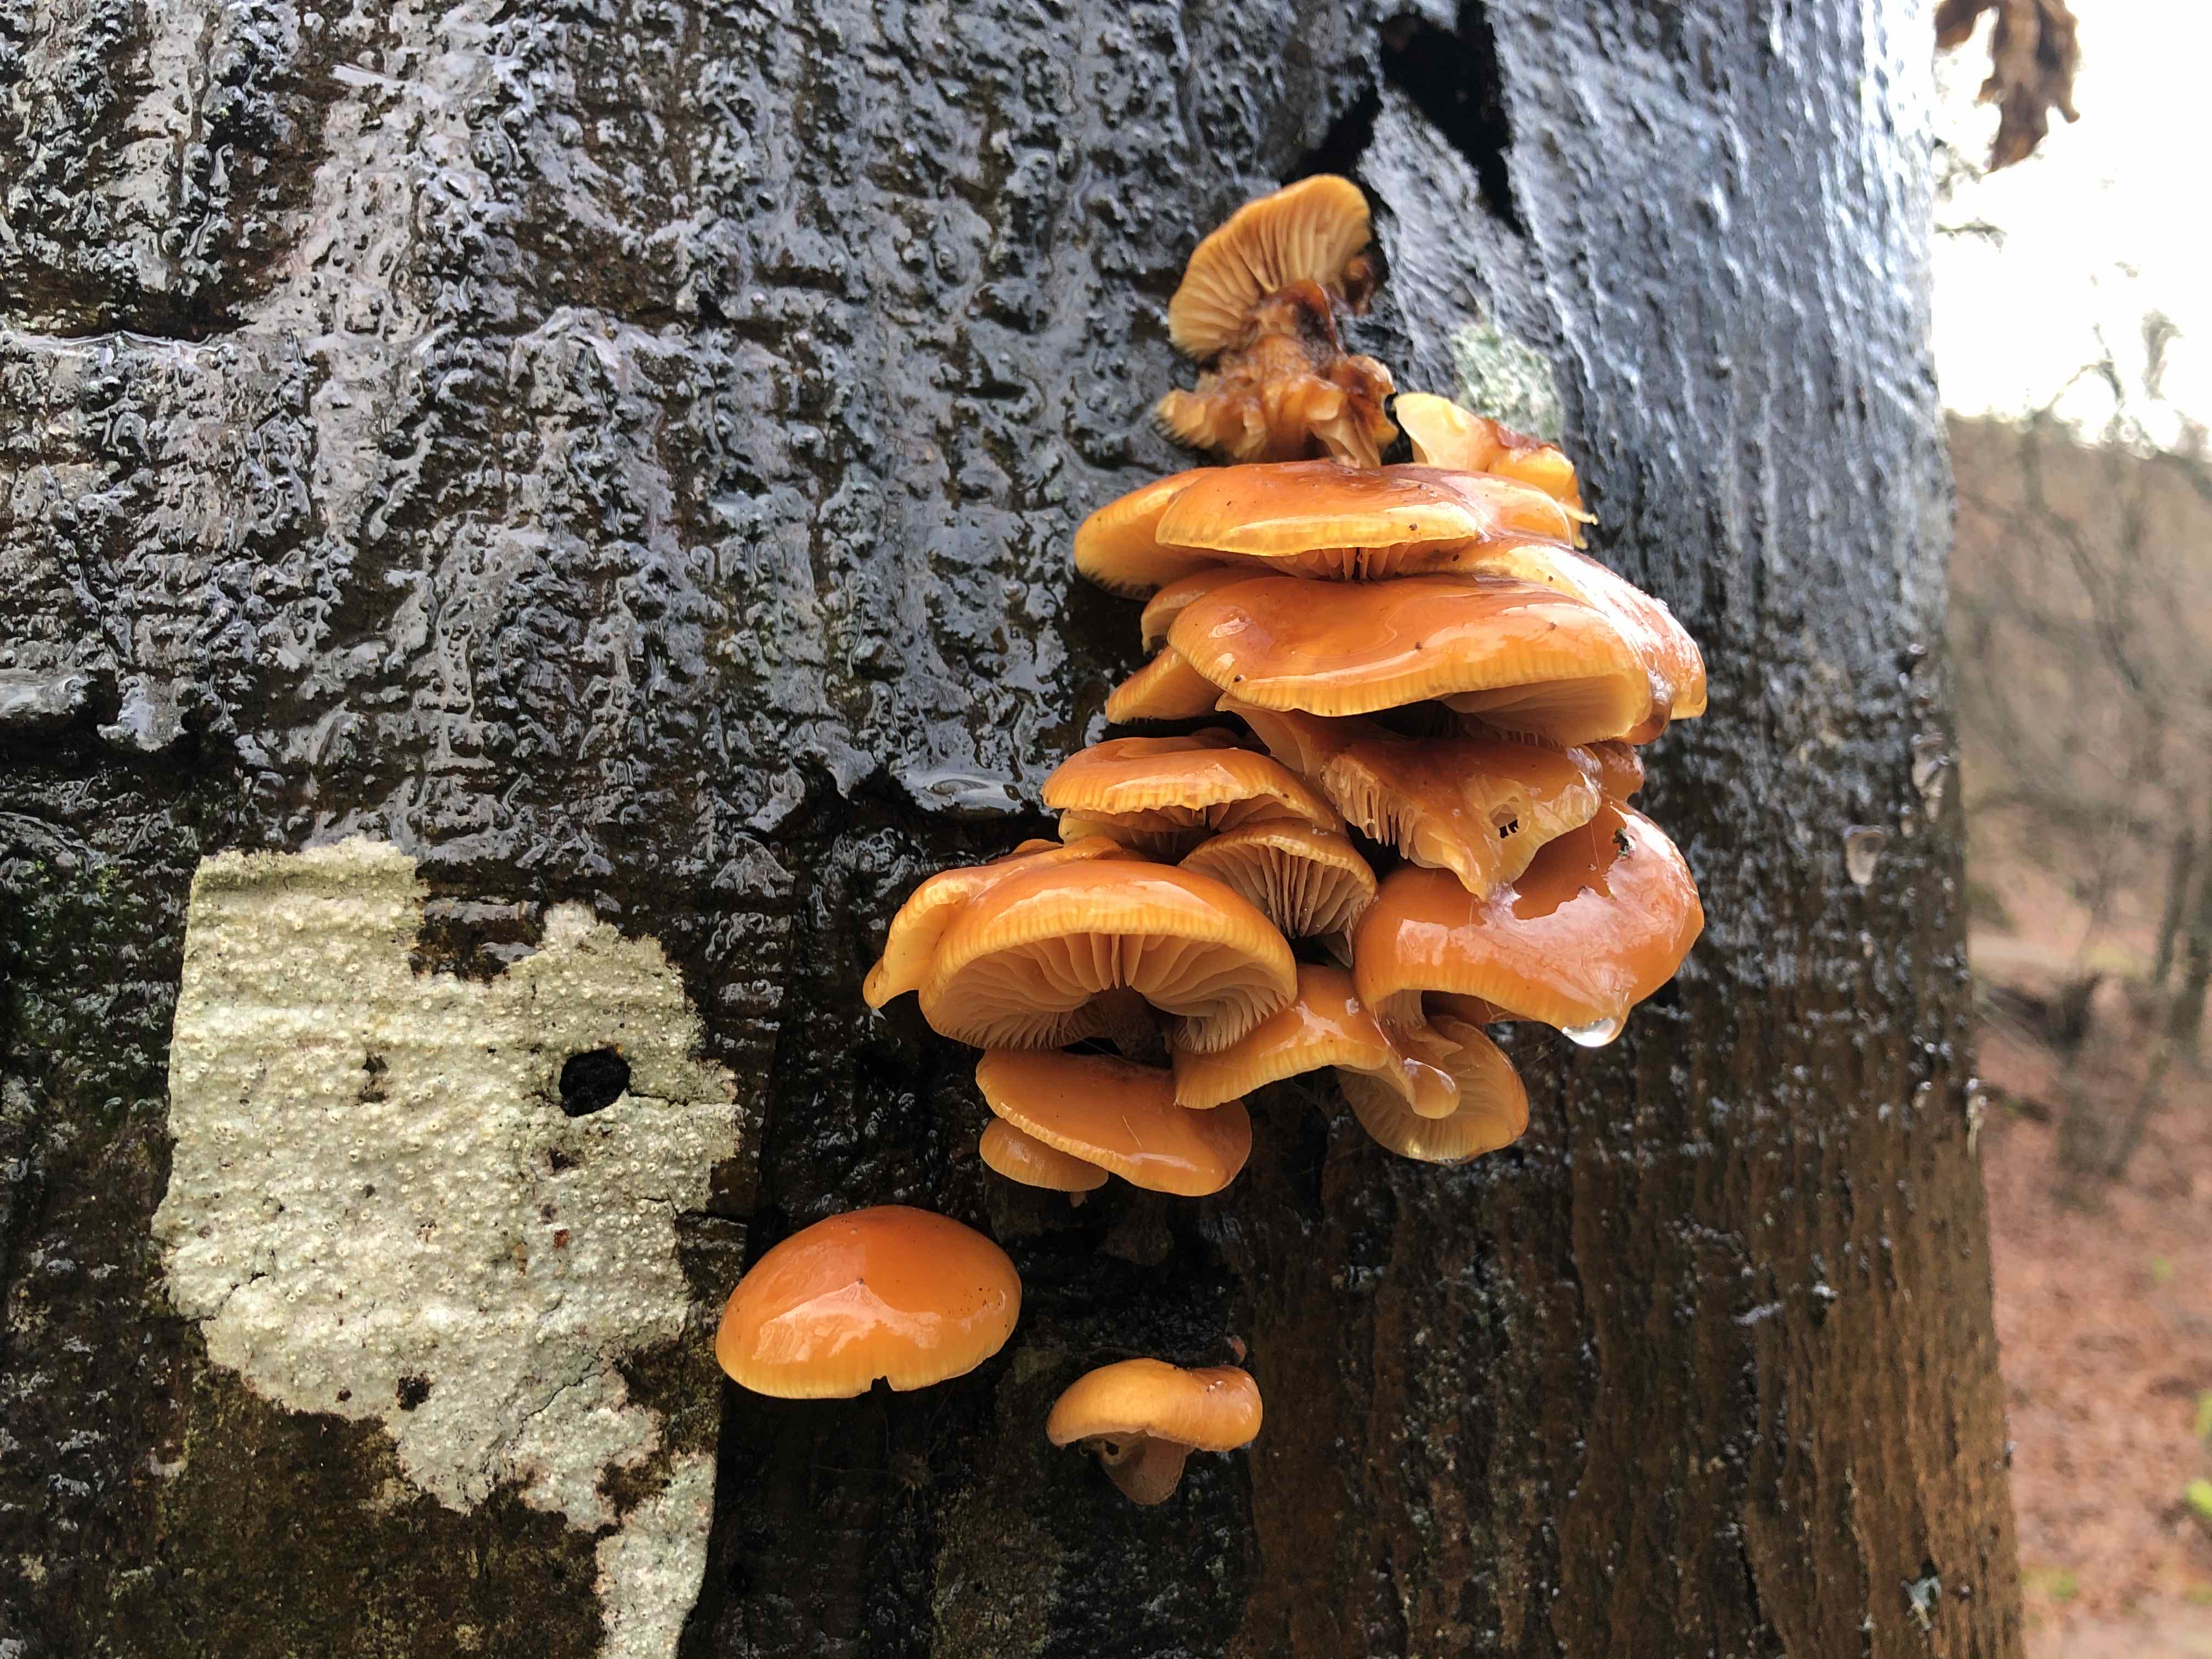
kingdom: Fungi
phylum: Basidiomycota
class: Agaricomycetes
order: Agaricales
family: Physalacriaceae
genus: Flammulina
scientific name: Flammulina velutipes
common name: gul fløjlsfod
